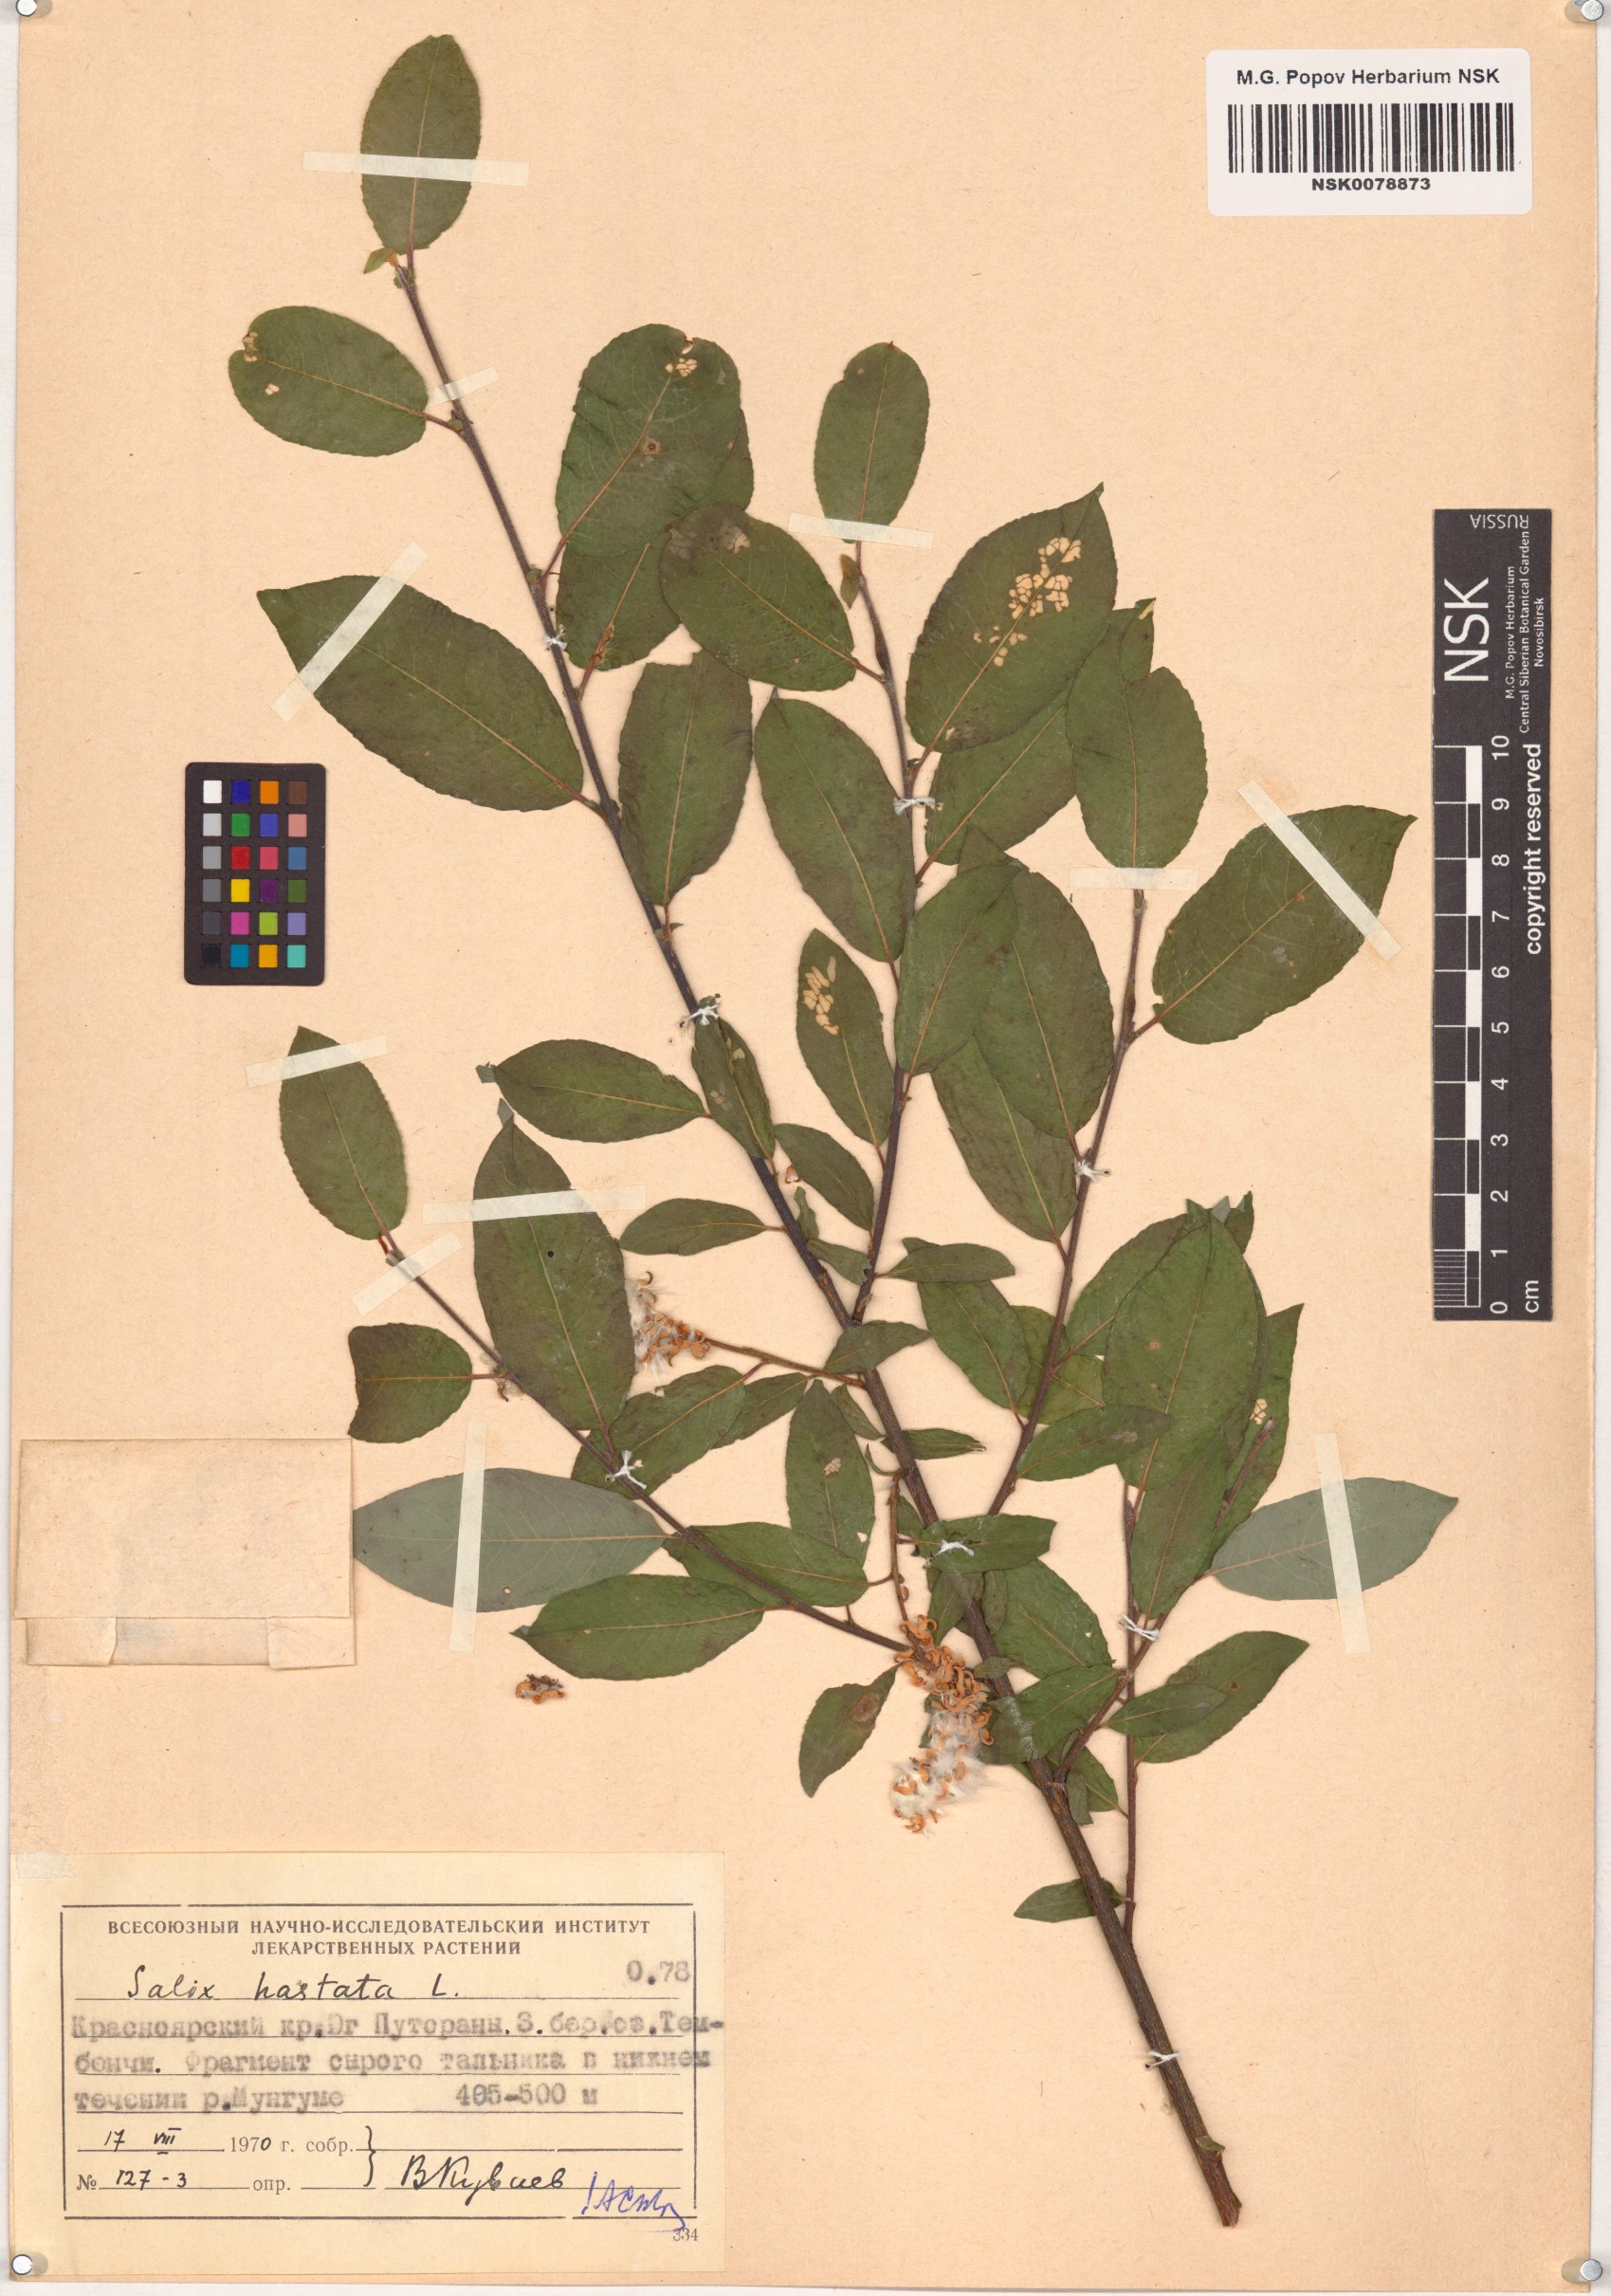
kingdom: Plantae
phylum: Tracheophyta
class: Magnoliopsida
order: Malpighiales
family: Salicaceae
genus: Salix
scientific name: Salix hastata
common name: Halberd willow
